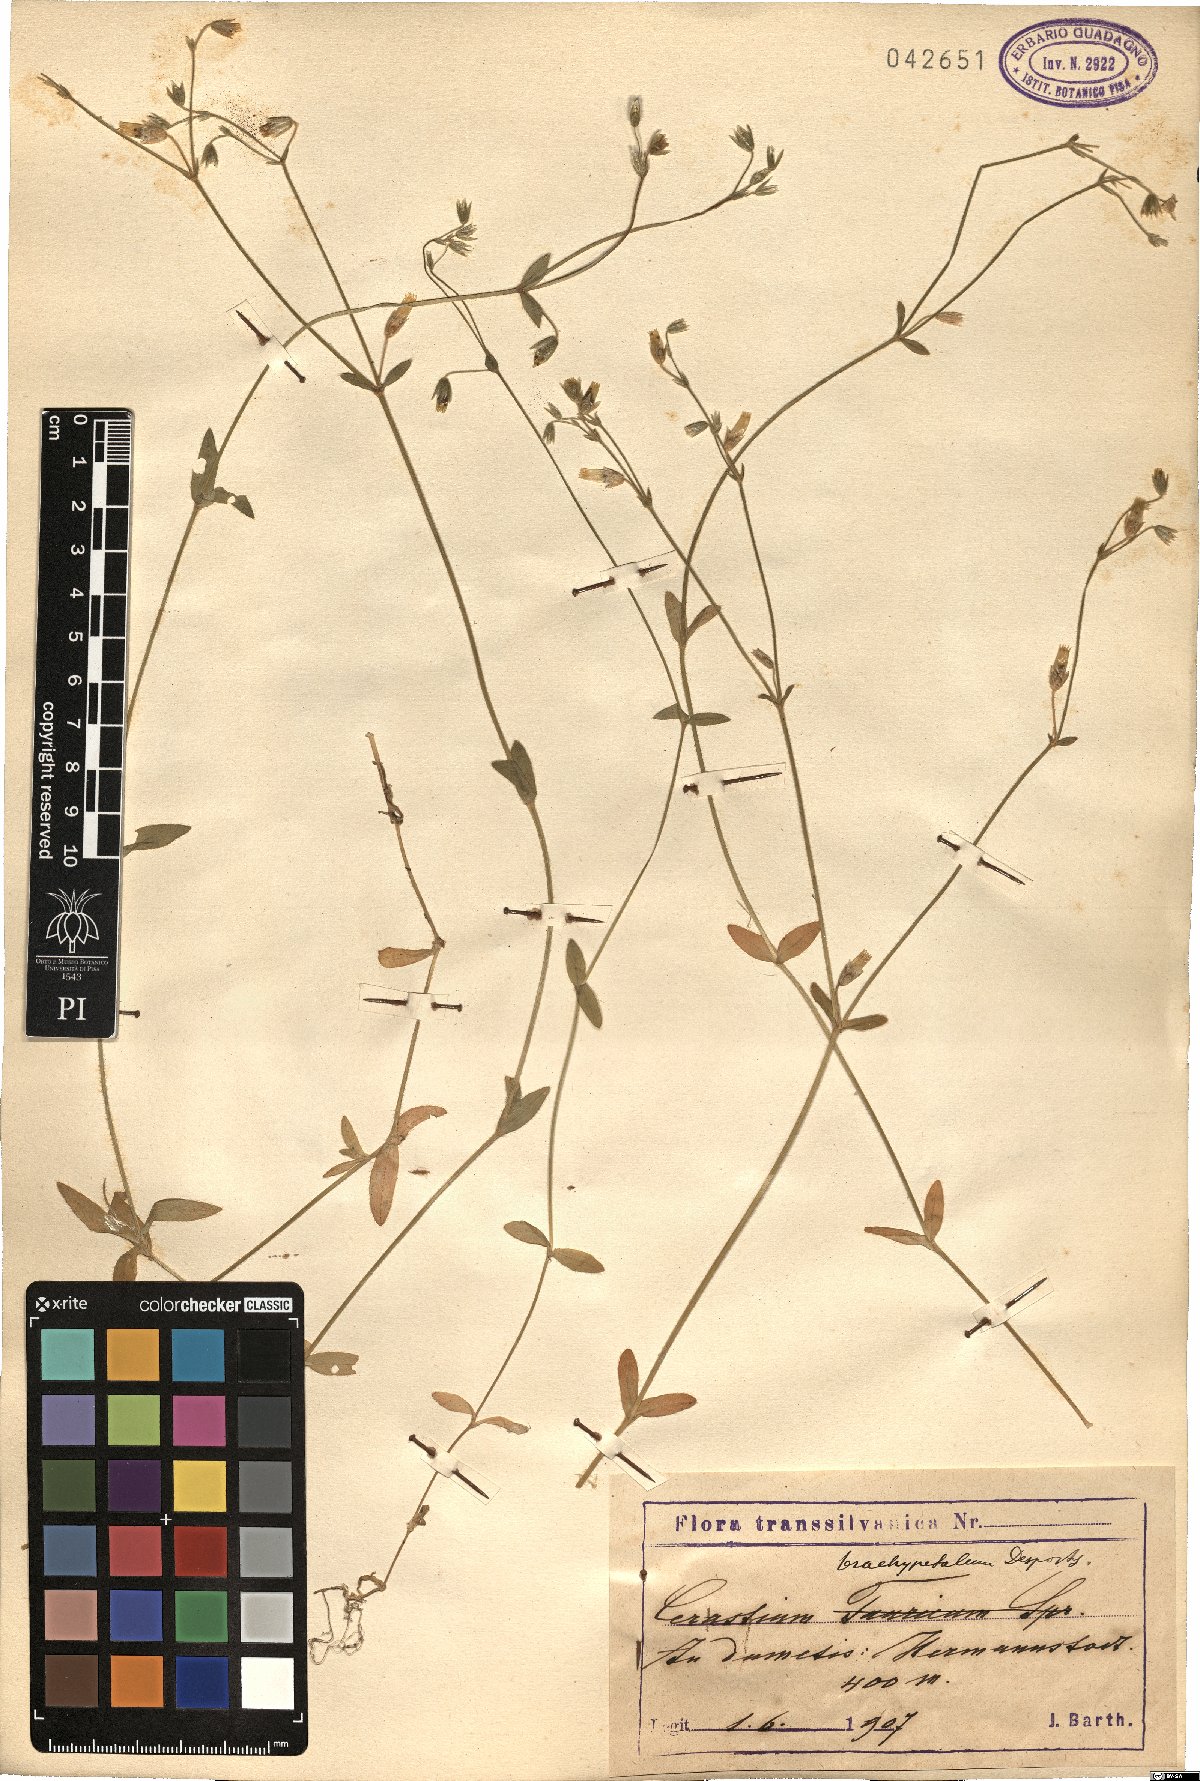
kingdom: Plantae
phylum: Tracheophyta
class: Magnoliopsida
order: Caryophyllales
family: Caryophyllaceae
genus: Cerastium
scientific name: Cerastium brachypetalum
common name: Grey mouse-ear
